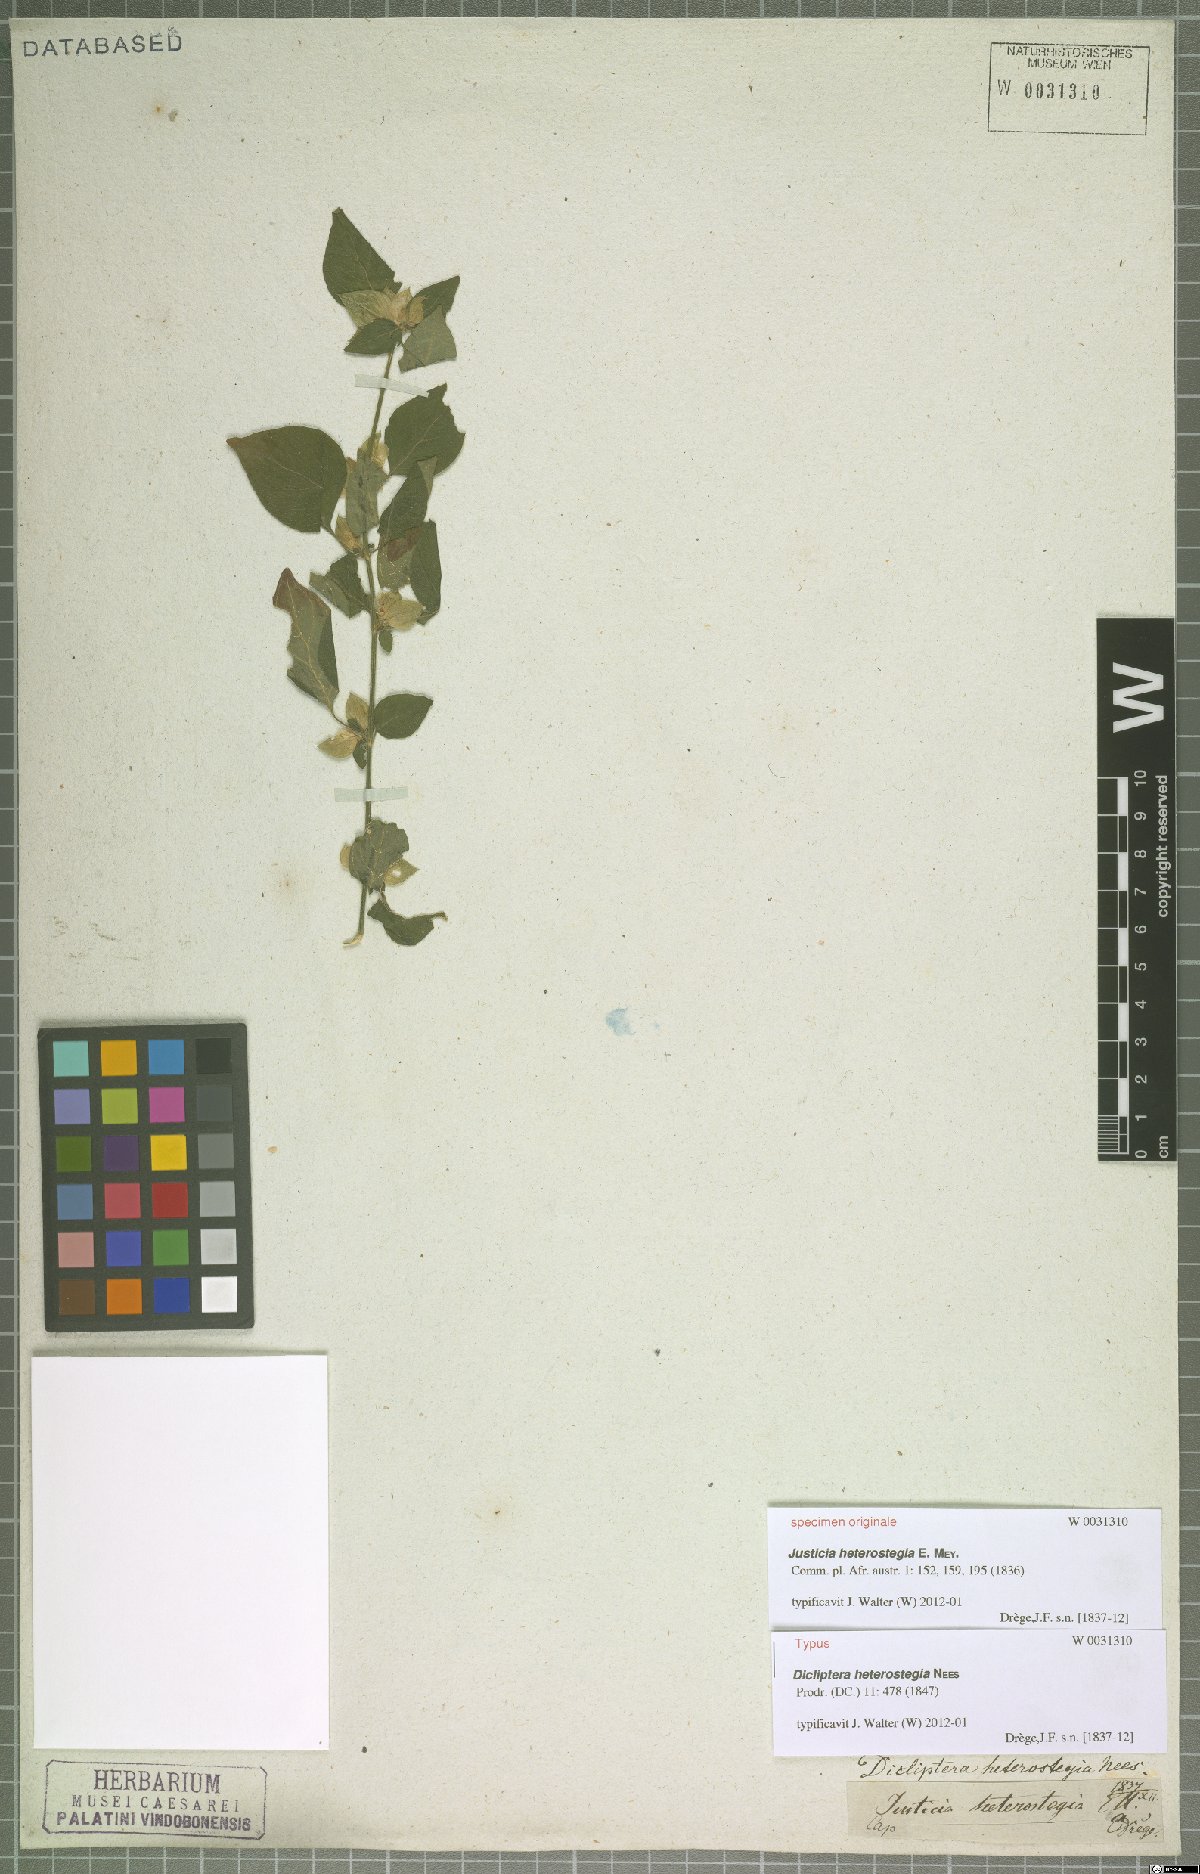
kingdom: Plantae
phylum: Tracheophyta
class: Magnoliopsida
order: Lamiales
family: Acanthaceae
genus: Dicliptera
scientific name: Dicliptera heterostegia
